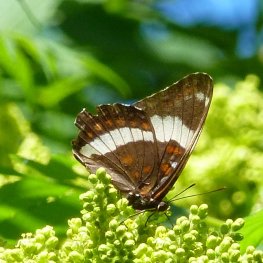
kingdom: Animalia
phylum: Arthropoda
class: Insecta
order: Lepidoptera
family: Nymphalidae
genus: Limenitis
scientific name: Limenitis arthemis
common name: Red-spotted Admiral
